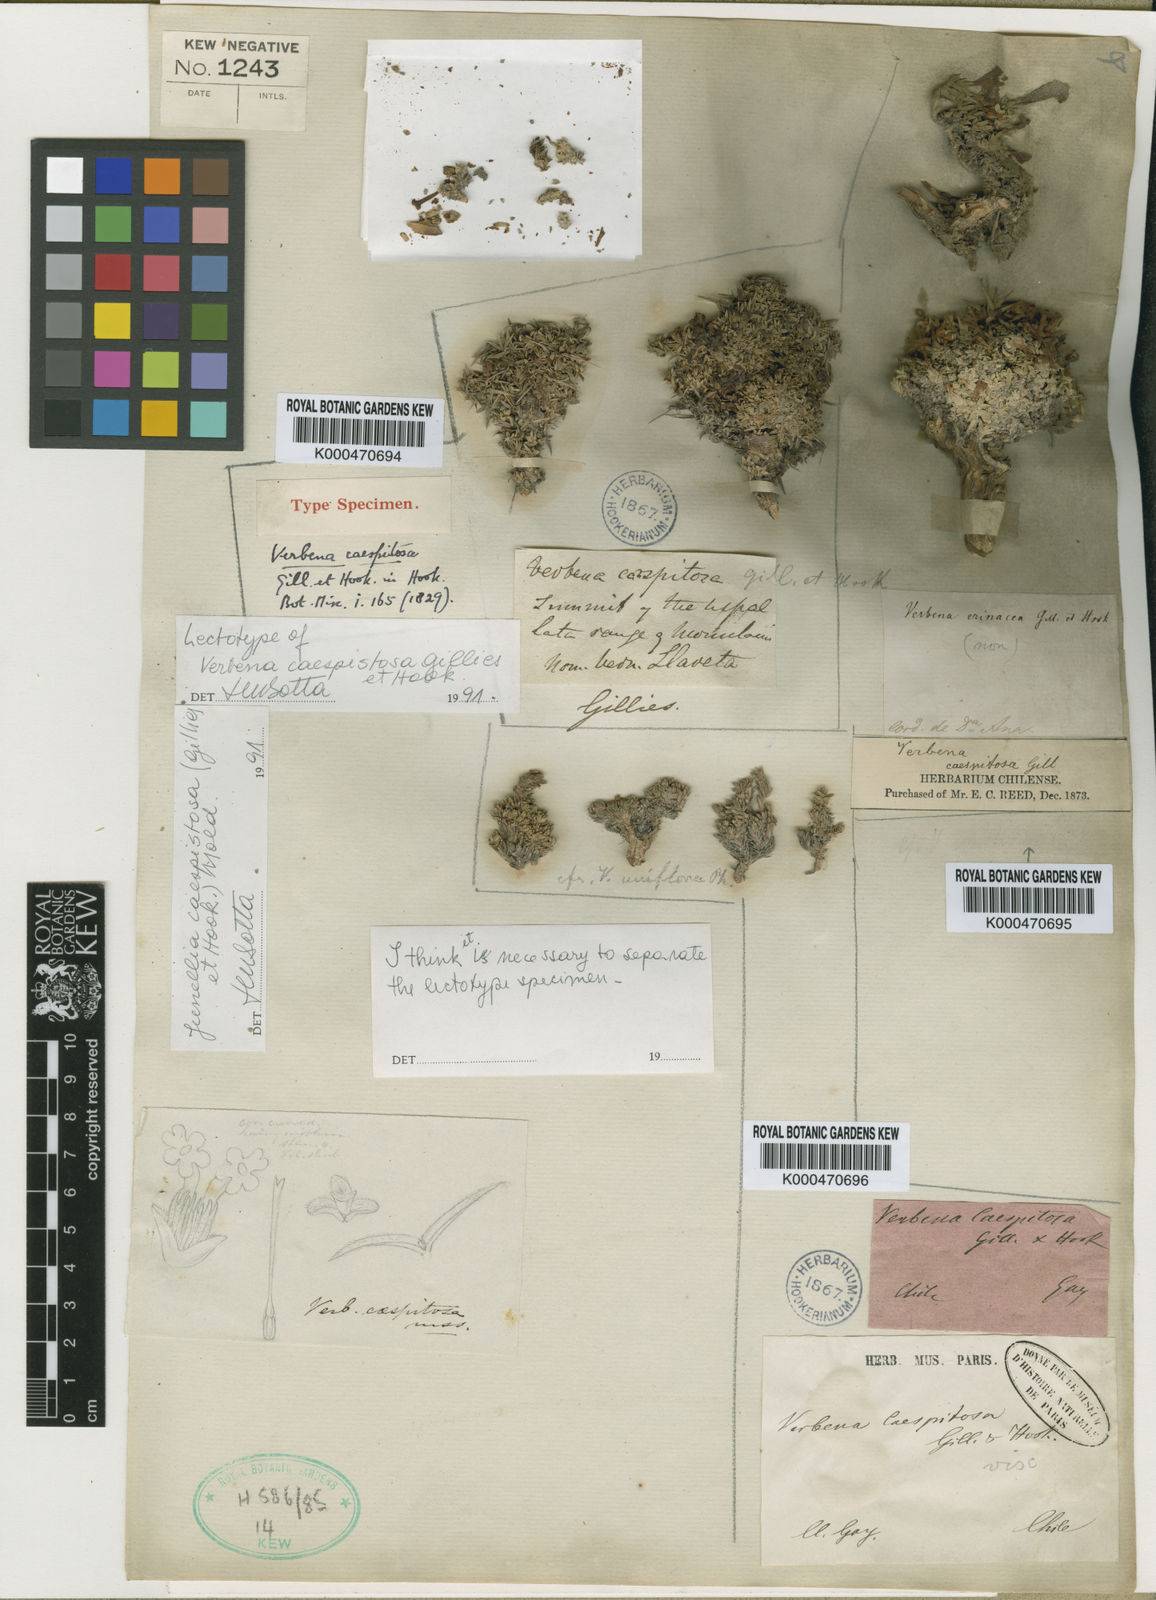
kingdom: Plantae
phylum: Tracheophyta
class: Magnoliopsida
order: Lamiales
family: Verbenaceae
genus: Junellia
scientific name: Junellia caespitosa
